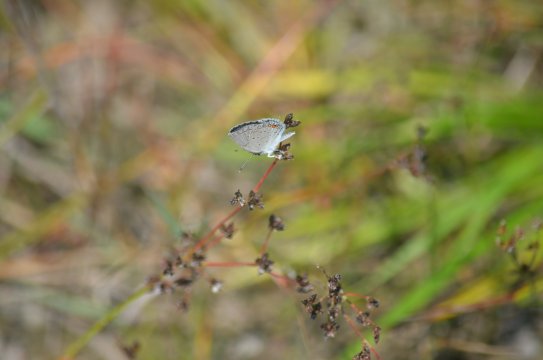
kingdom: Animalia
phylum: Arthropoda
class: Insecta
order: Lepidoptera
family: Lycaenidae
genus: Elkalyce
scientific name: Elkalyce comyntas
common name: Eastern Tailed-Blue
